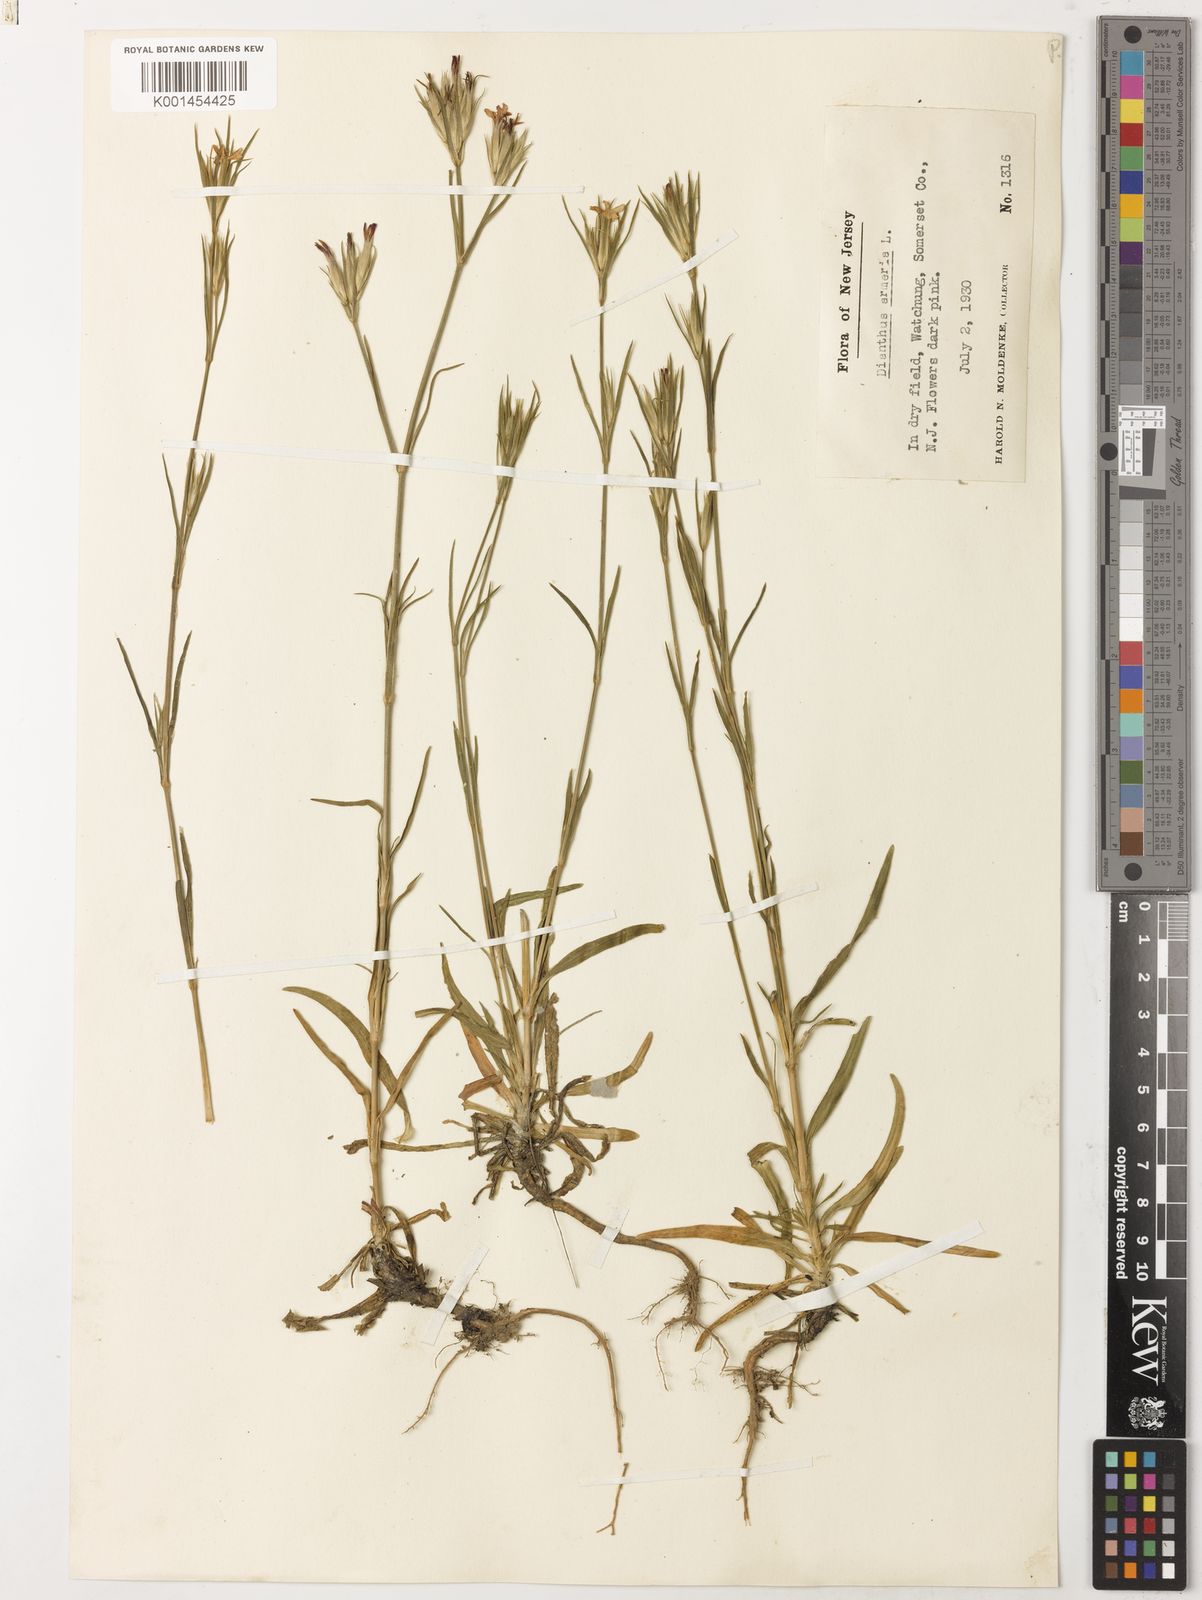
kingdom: Plantae
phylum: Tracheophyta
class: Magnoliopsida
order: Caryophyllales
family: Caryophyllaceae
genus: Dianthus
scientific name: Dianthus armeria
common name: Deptford pink
